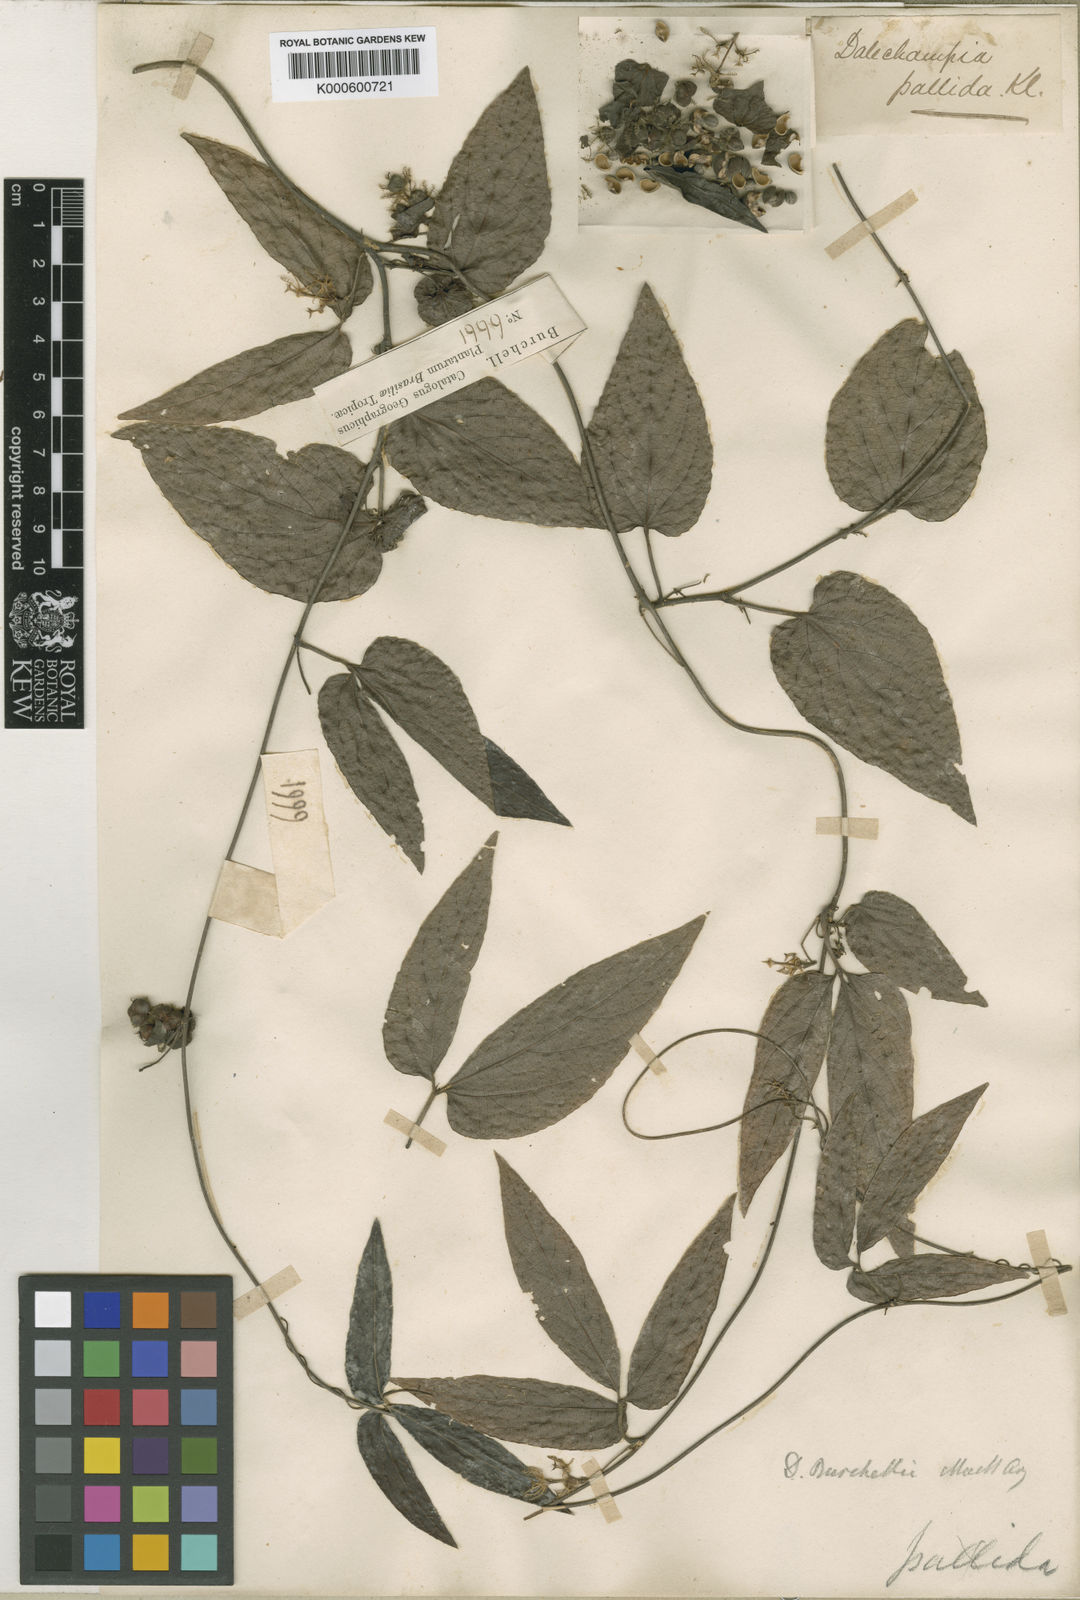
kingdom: Plantae
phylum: Tracheophyta
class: Magnoliopsida
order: Malpighiales
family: Euphorbiaceae
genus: Dalechampia
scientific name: Dalechampia
